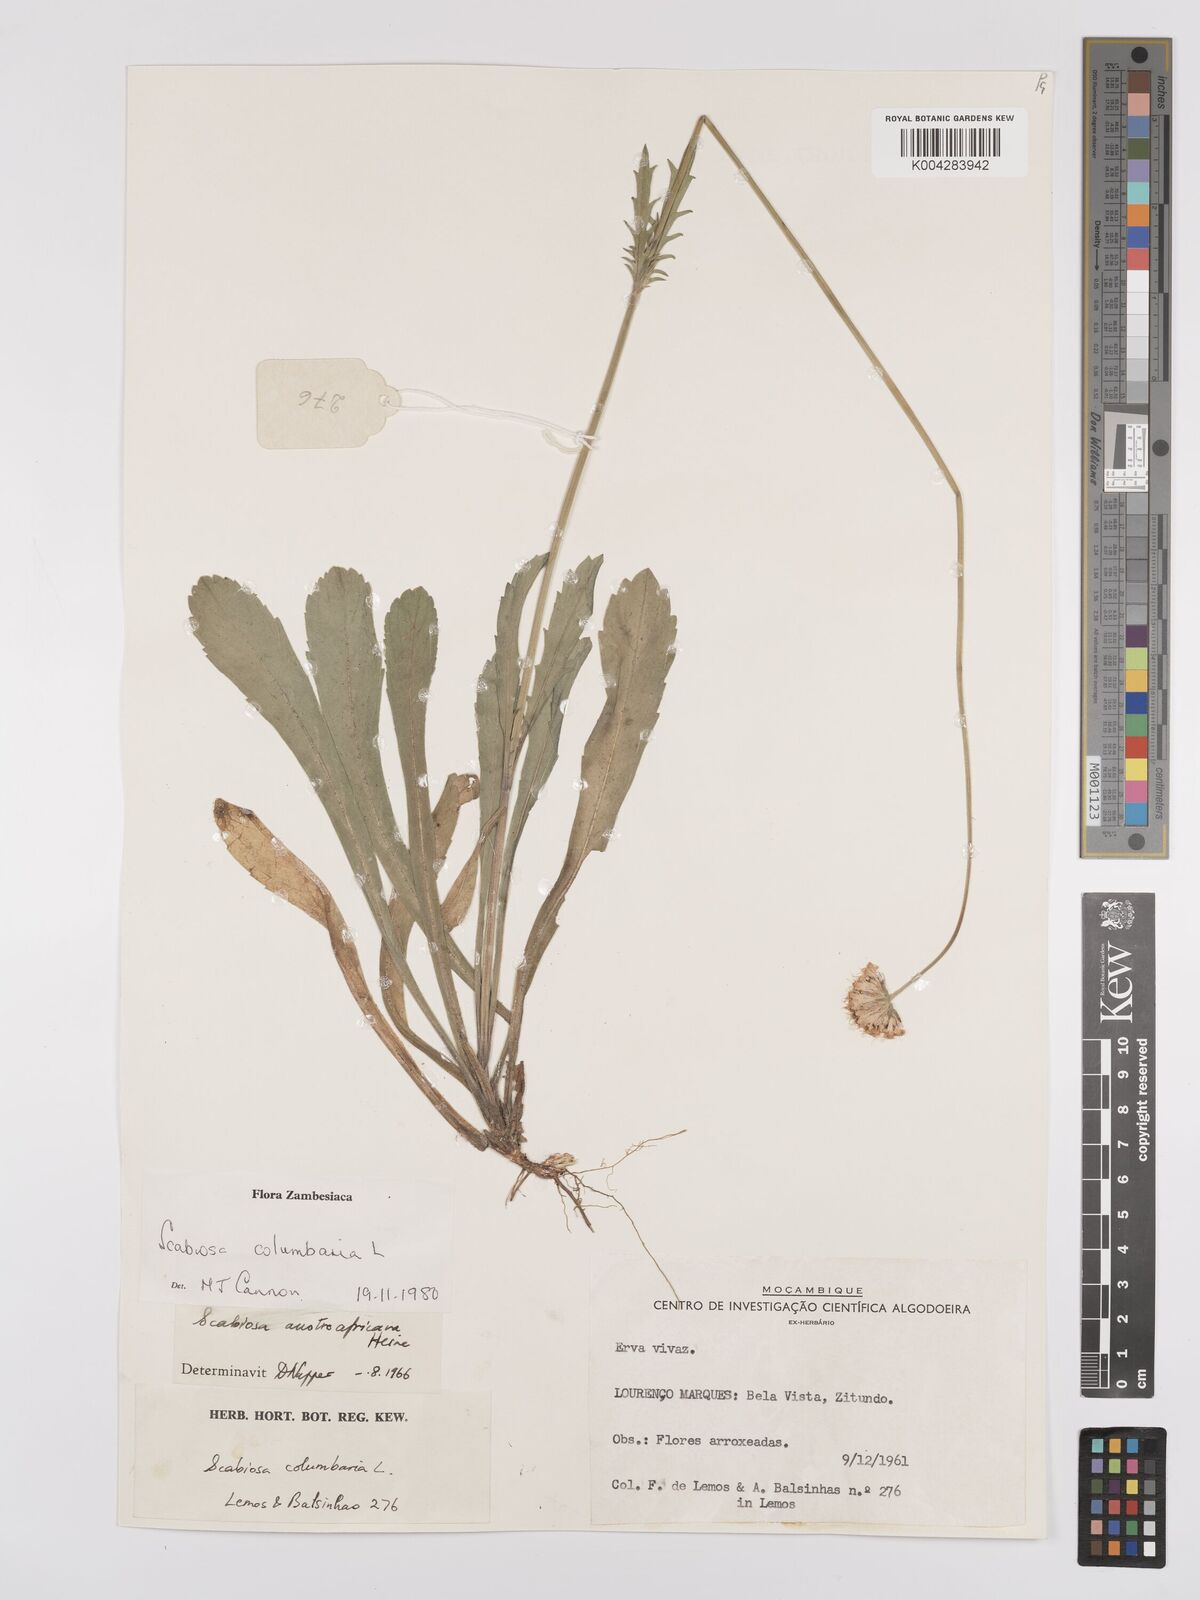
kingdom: Plantae
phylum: Tracheophyta
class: Magnoliopsida
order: Dipsacales
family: Caprifoliaceae
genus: Scabiosa
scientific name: Scabiosa austroafricana
